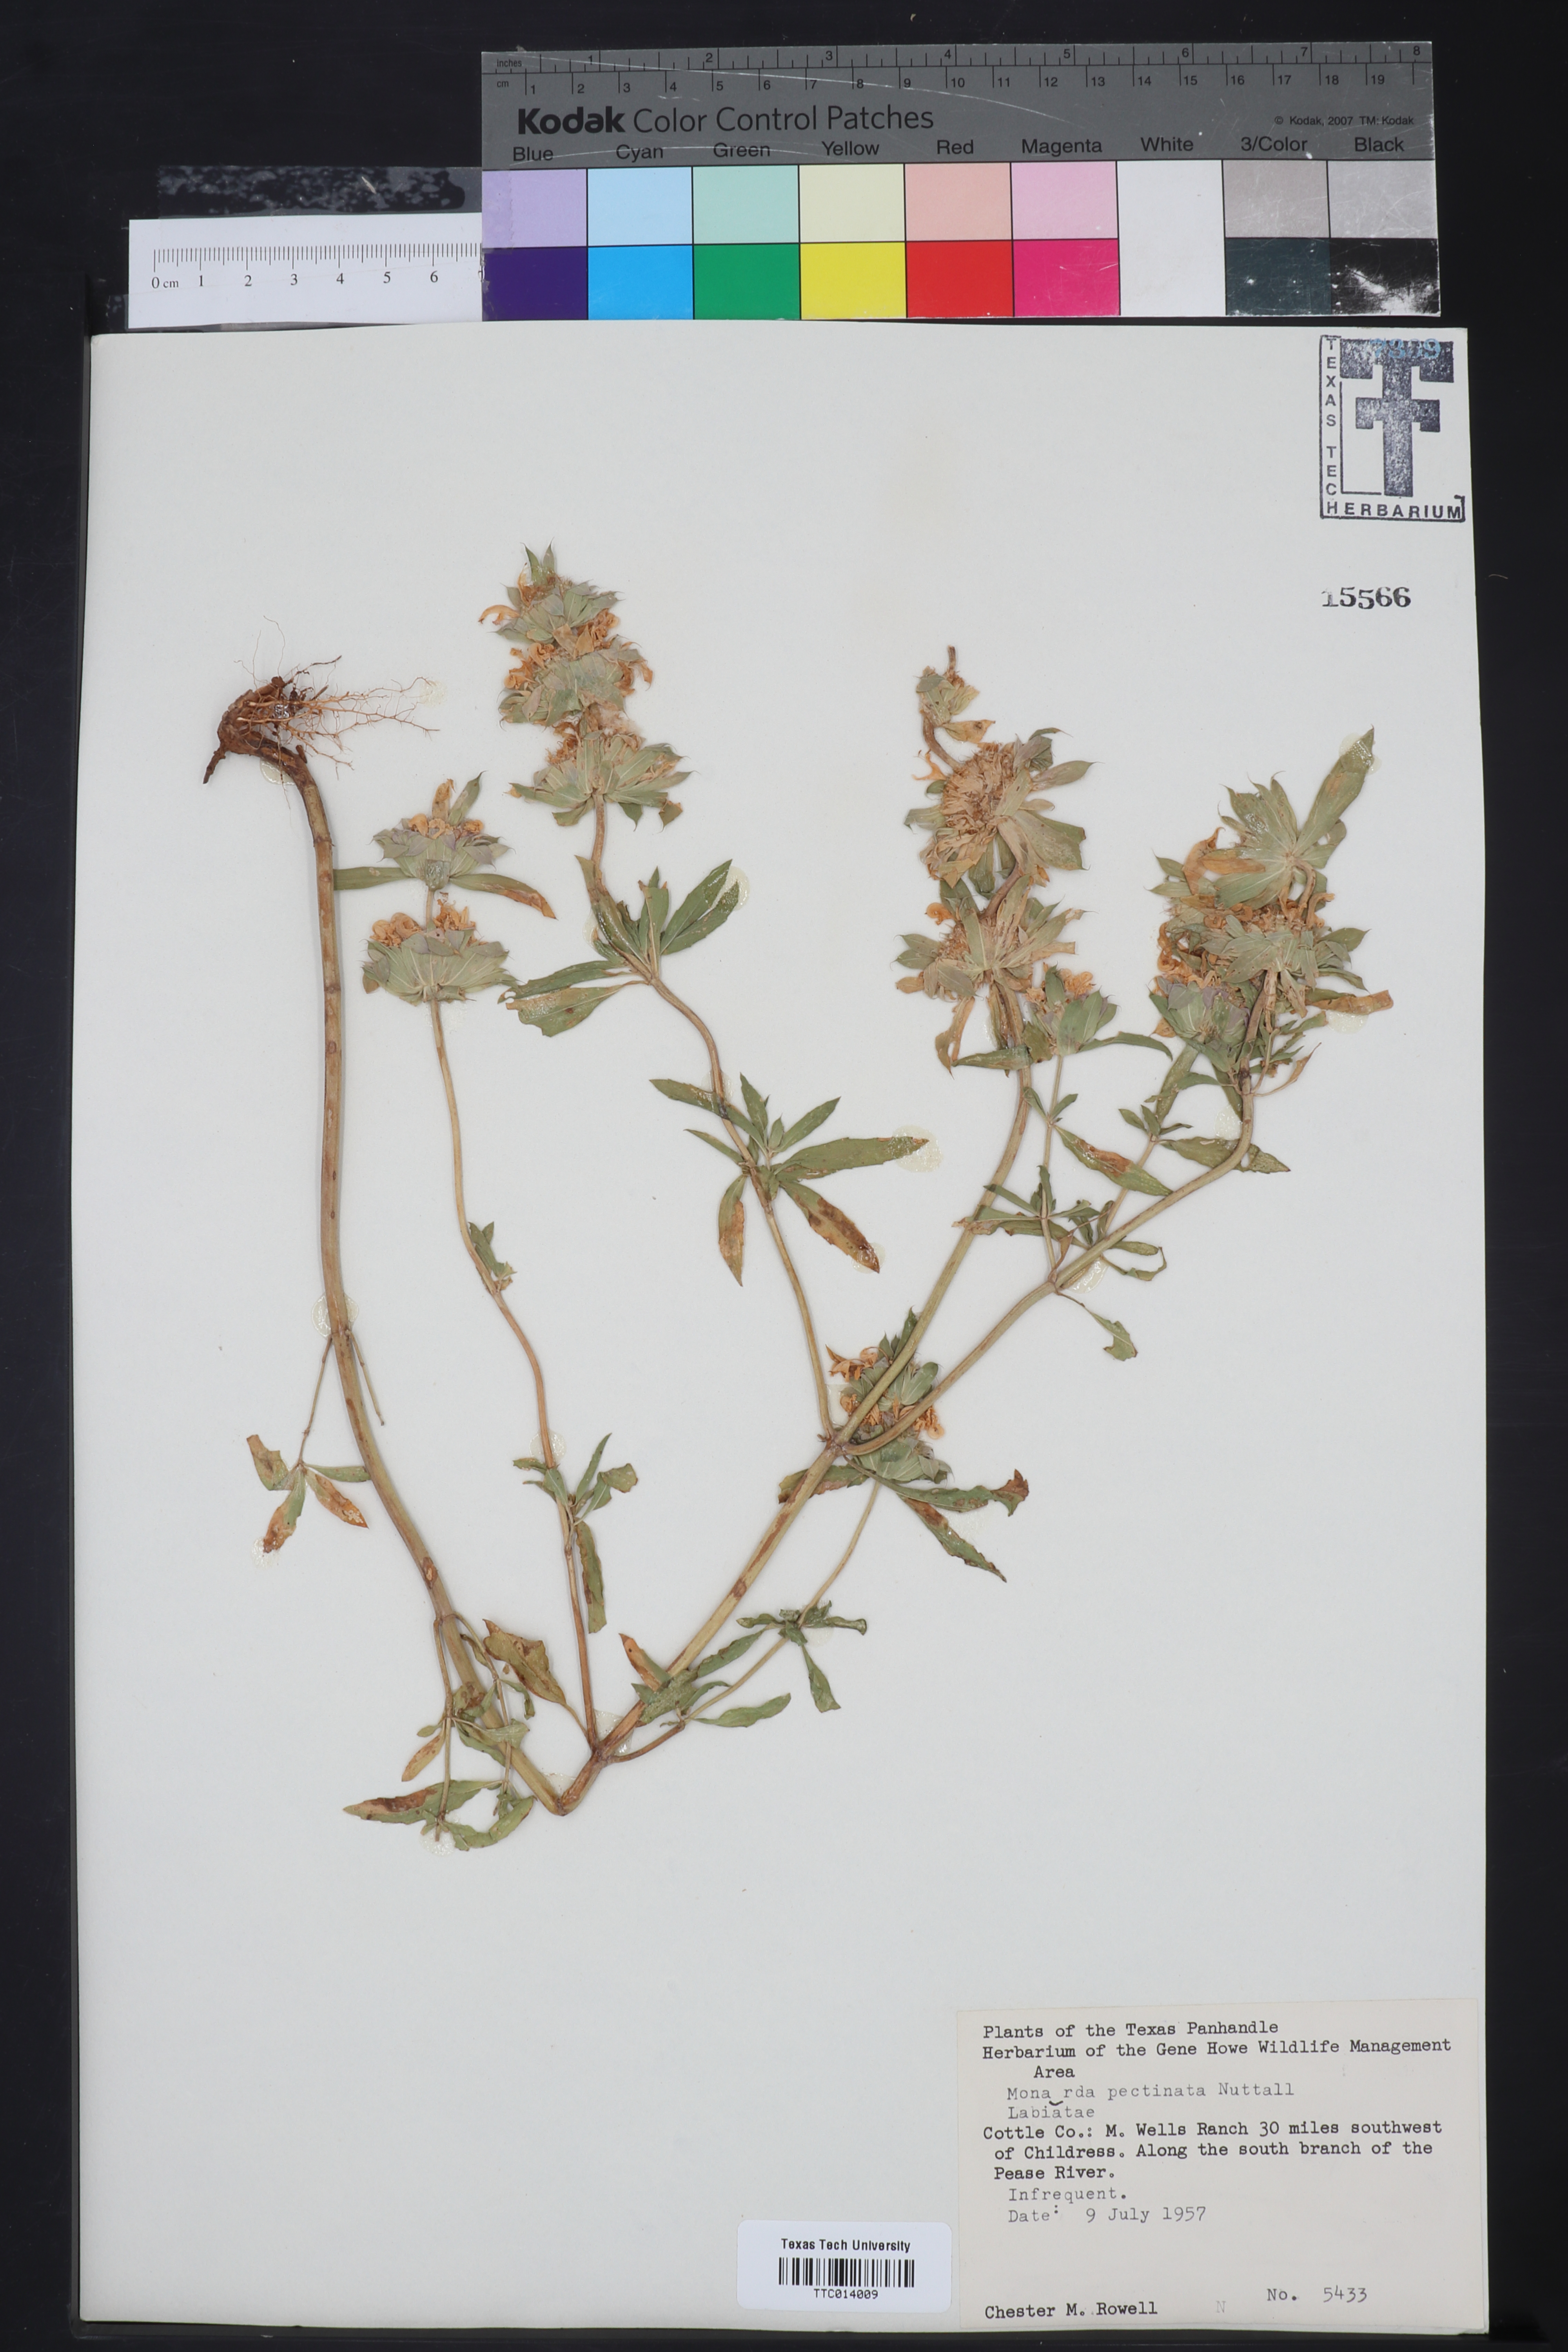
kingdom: Plantae
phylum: Tracheophyta
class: Magnoliopsida
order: Lamiales
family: Lamiaceae
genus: Monarda
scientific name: Monarda pectinata
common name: Plains beebalm
